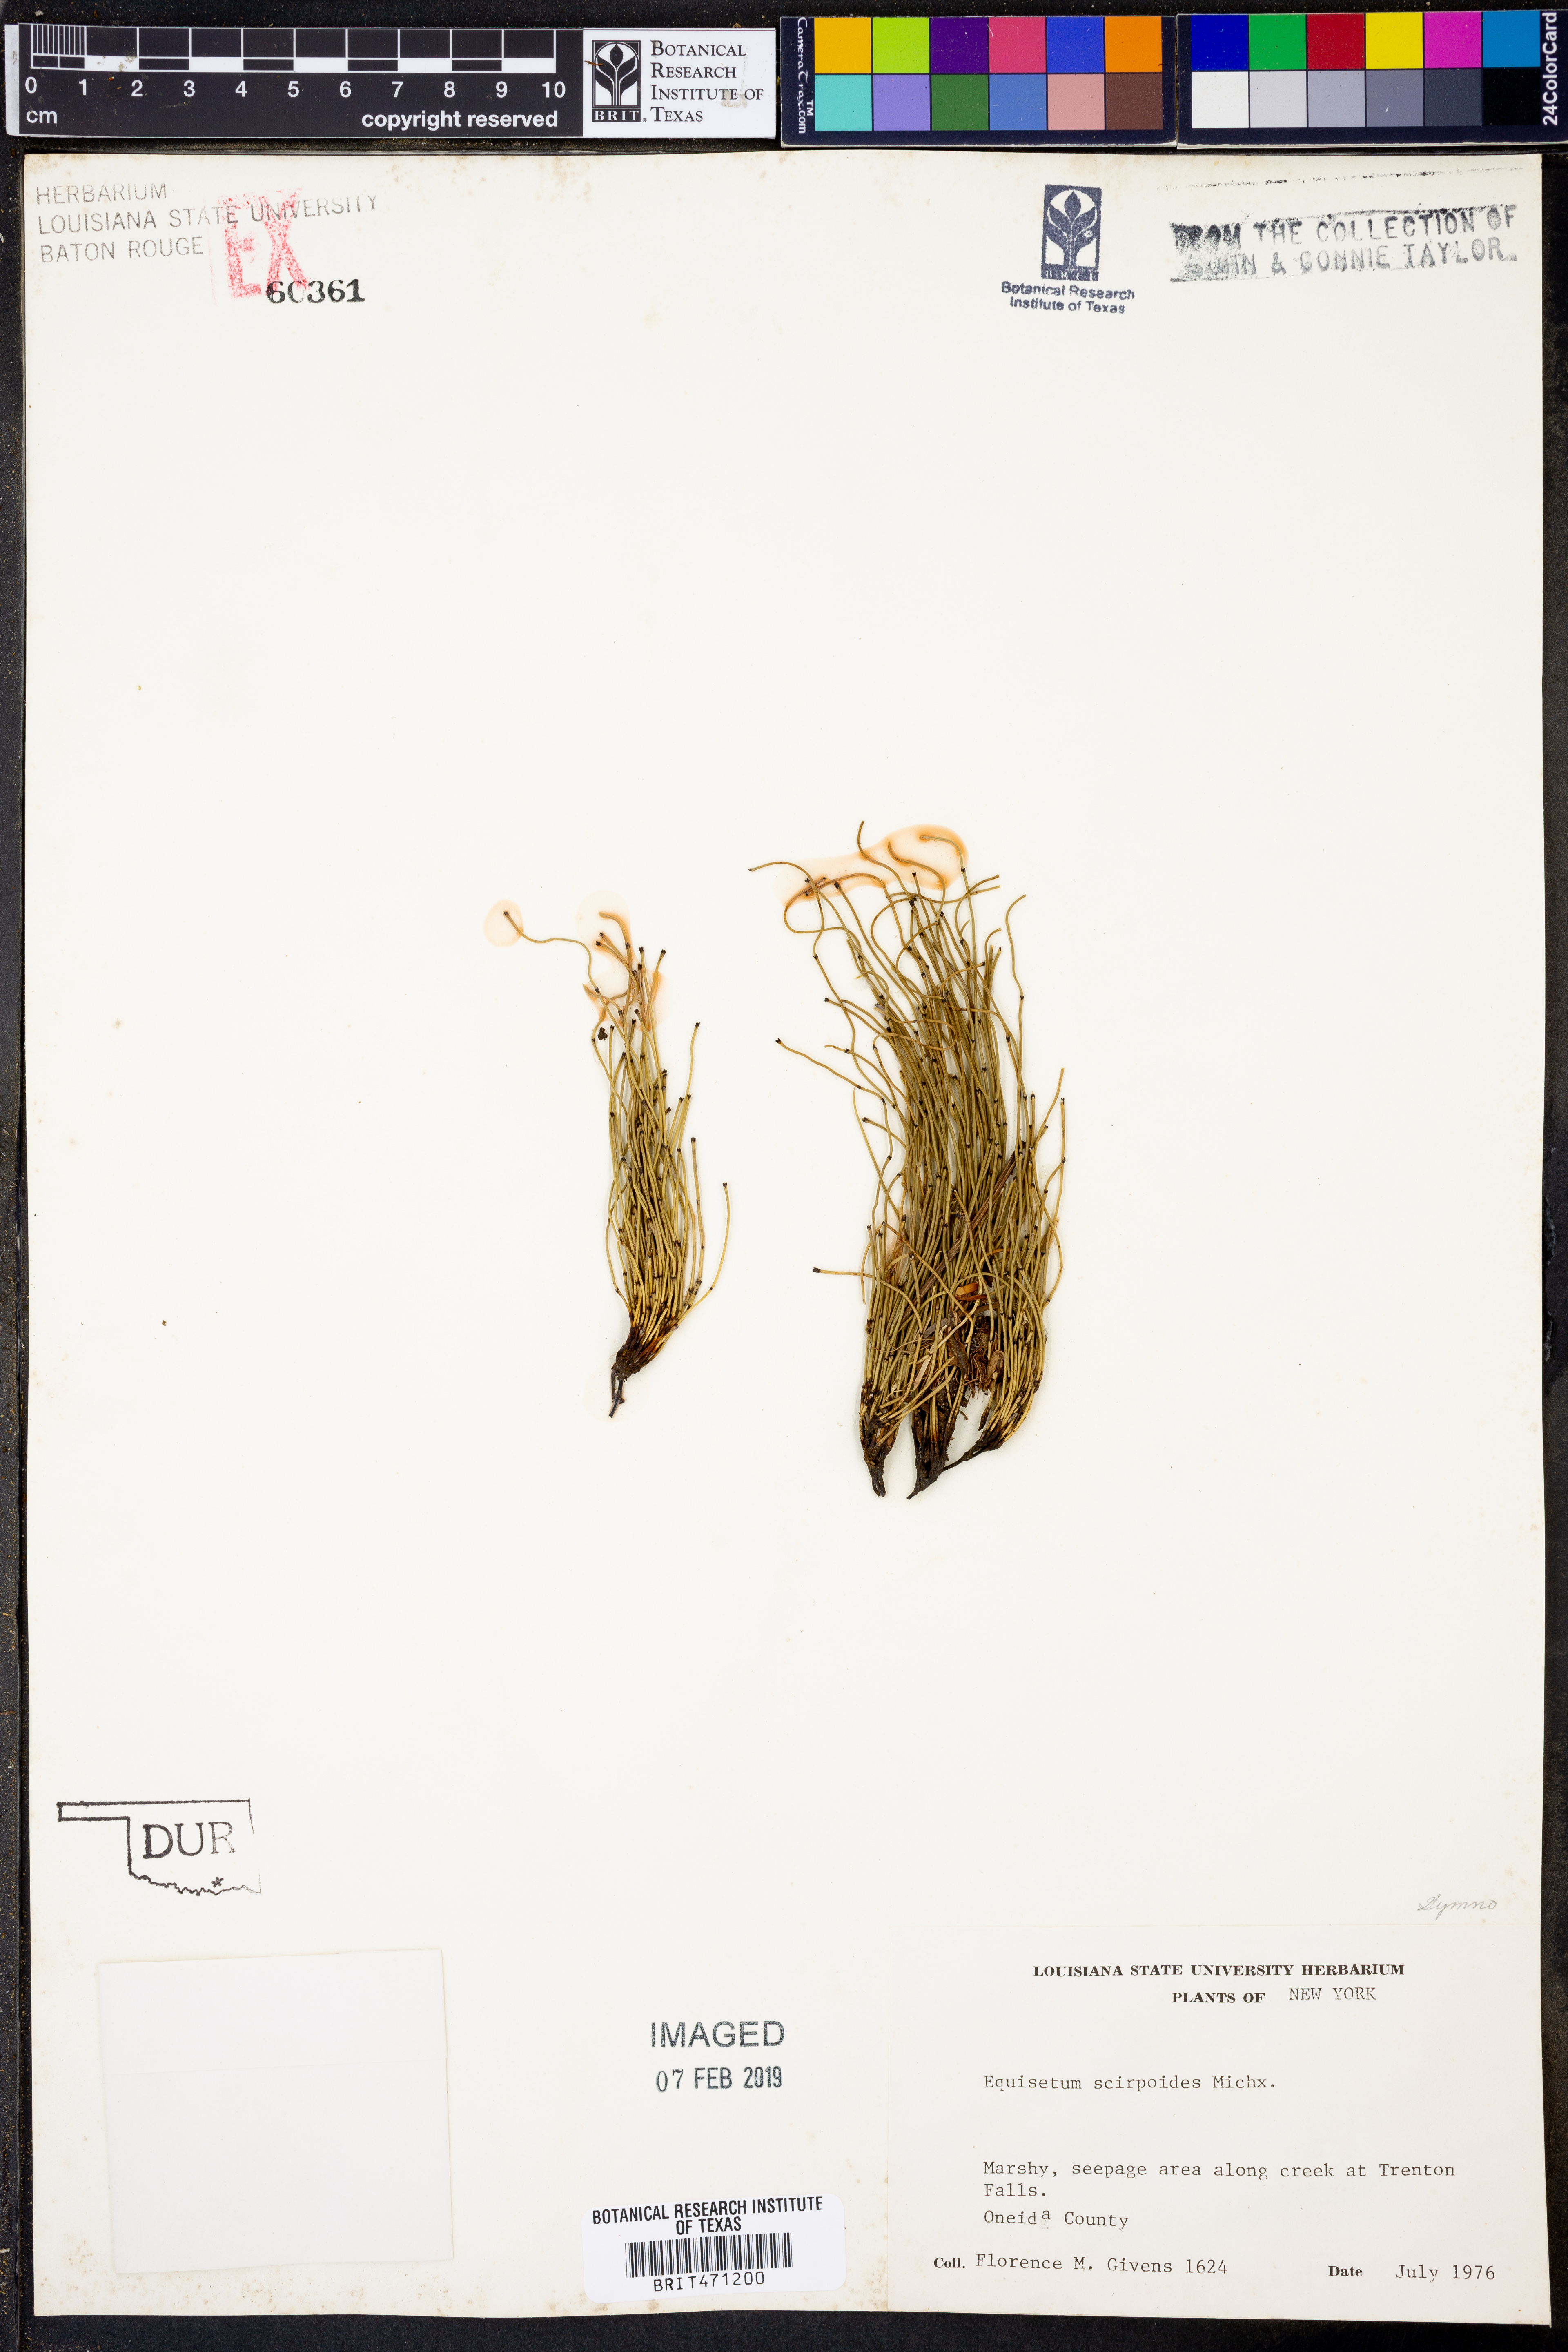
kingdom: Plantae
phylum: Tracheophyta
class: Polypodiopsida
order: Equisetales
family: Equisetaceae
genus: Equisetum
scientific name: Equisetum scirpoides
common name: Delicate horsetail
